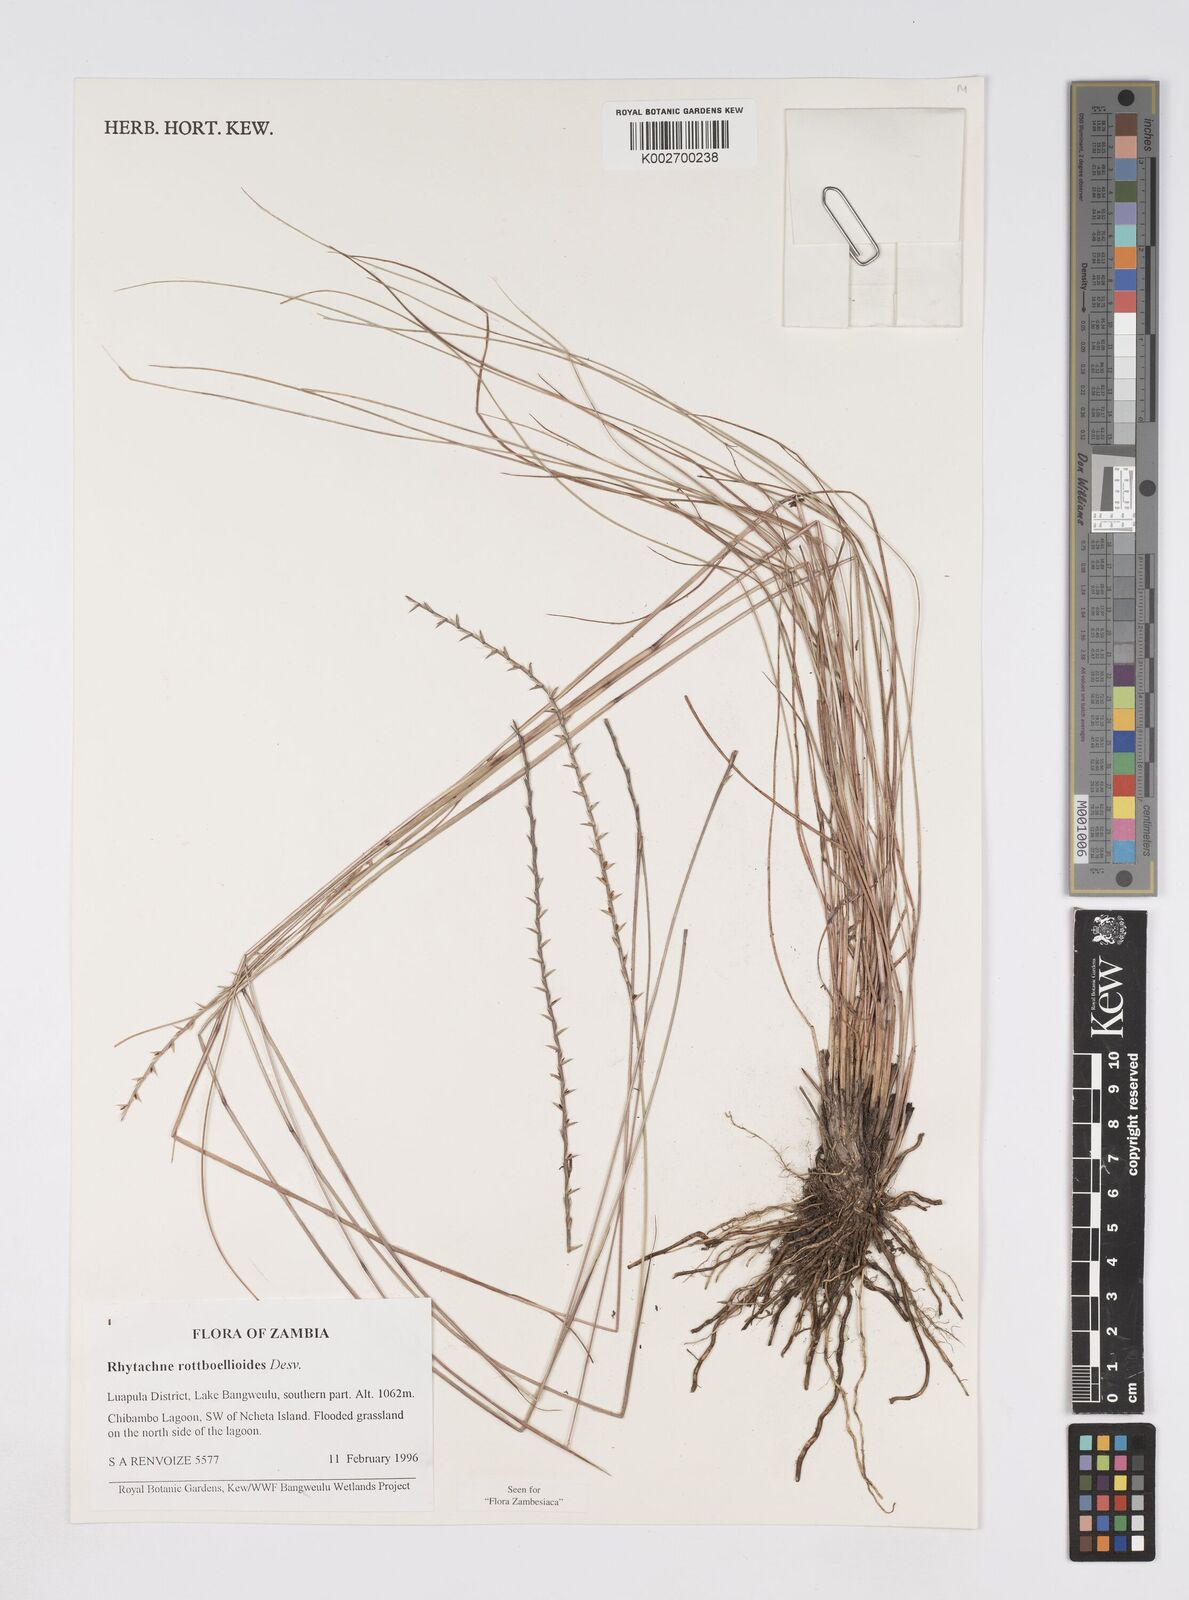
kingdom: Plantae
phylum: Tracheophyta
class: Liliopsida
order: Poales
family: Poaceae
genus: Rhytachne
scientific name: Rhytachne rottboellioides
